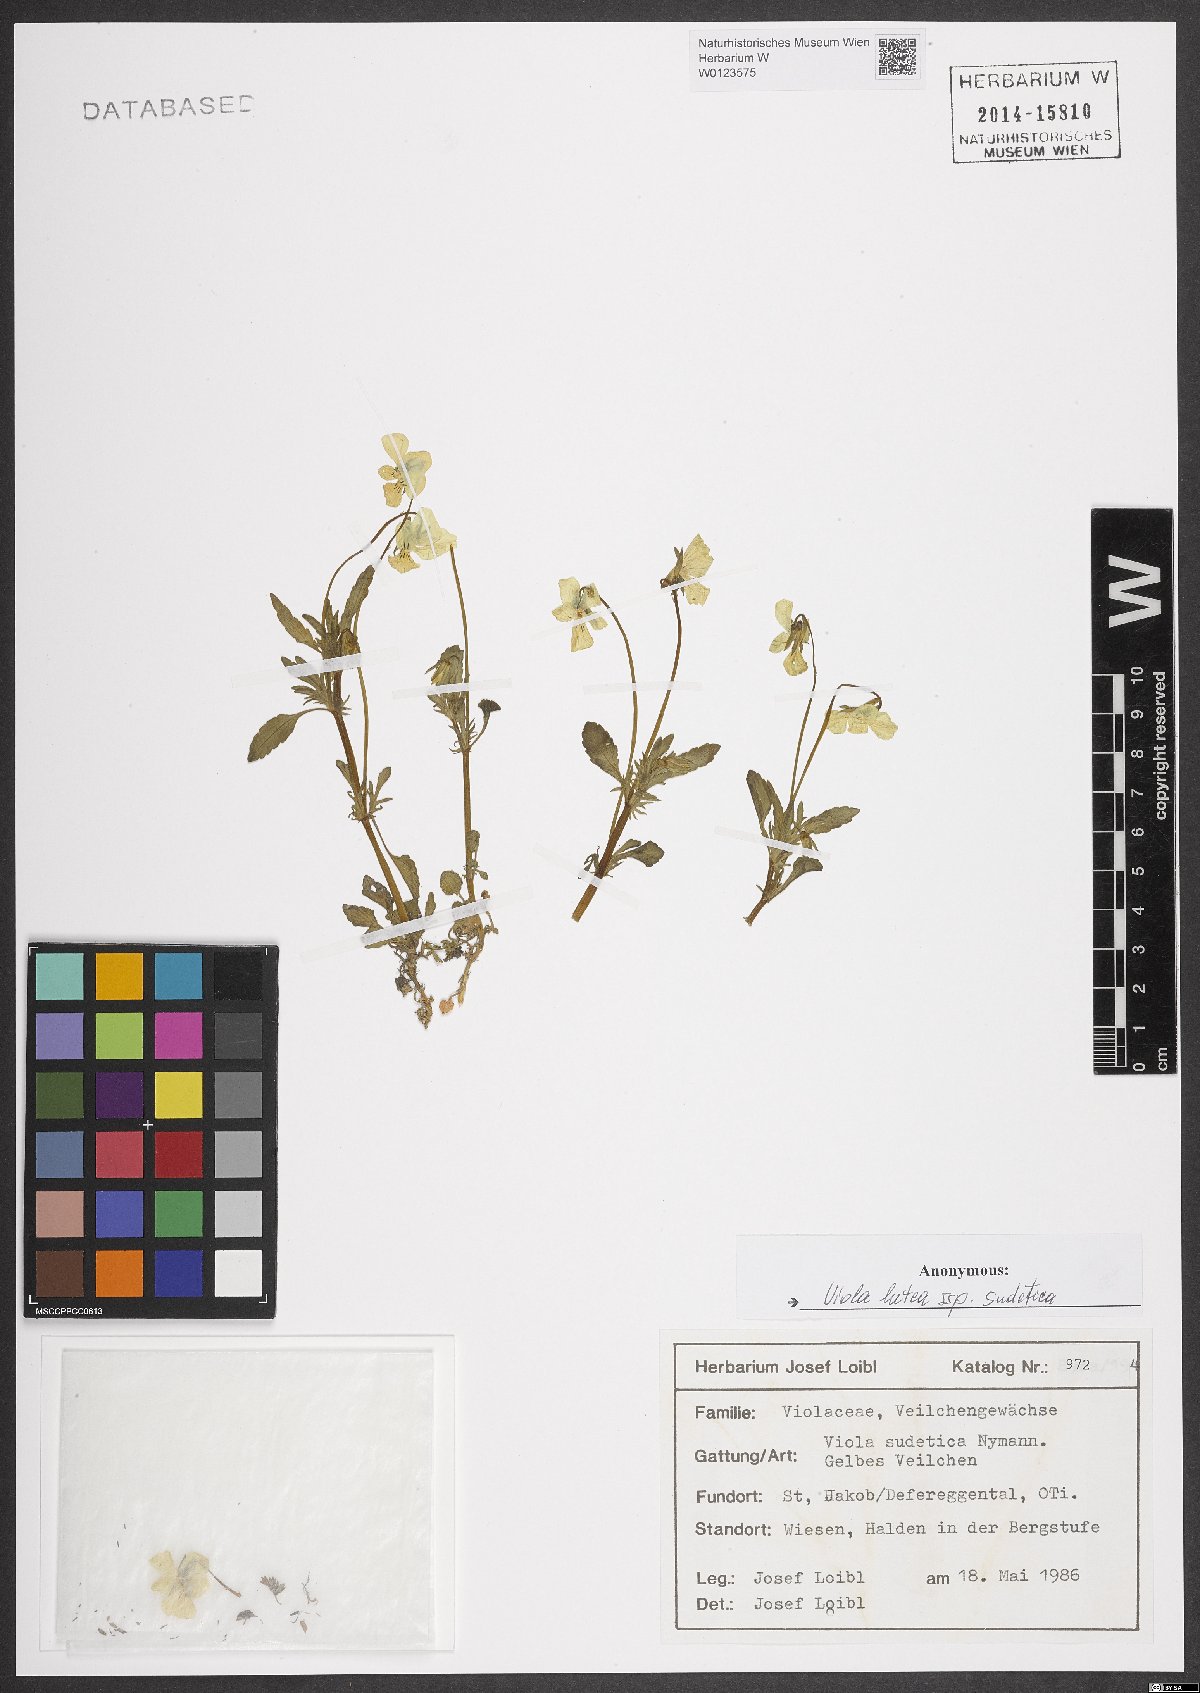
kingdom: Plantae
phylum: Tracheophyta
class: Magnoliopsida
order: Malpighiales
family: Violaceae
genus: Viola
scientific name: Viola lutea
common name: Mountain pansy
